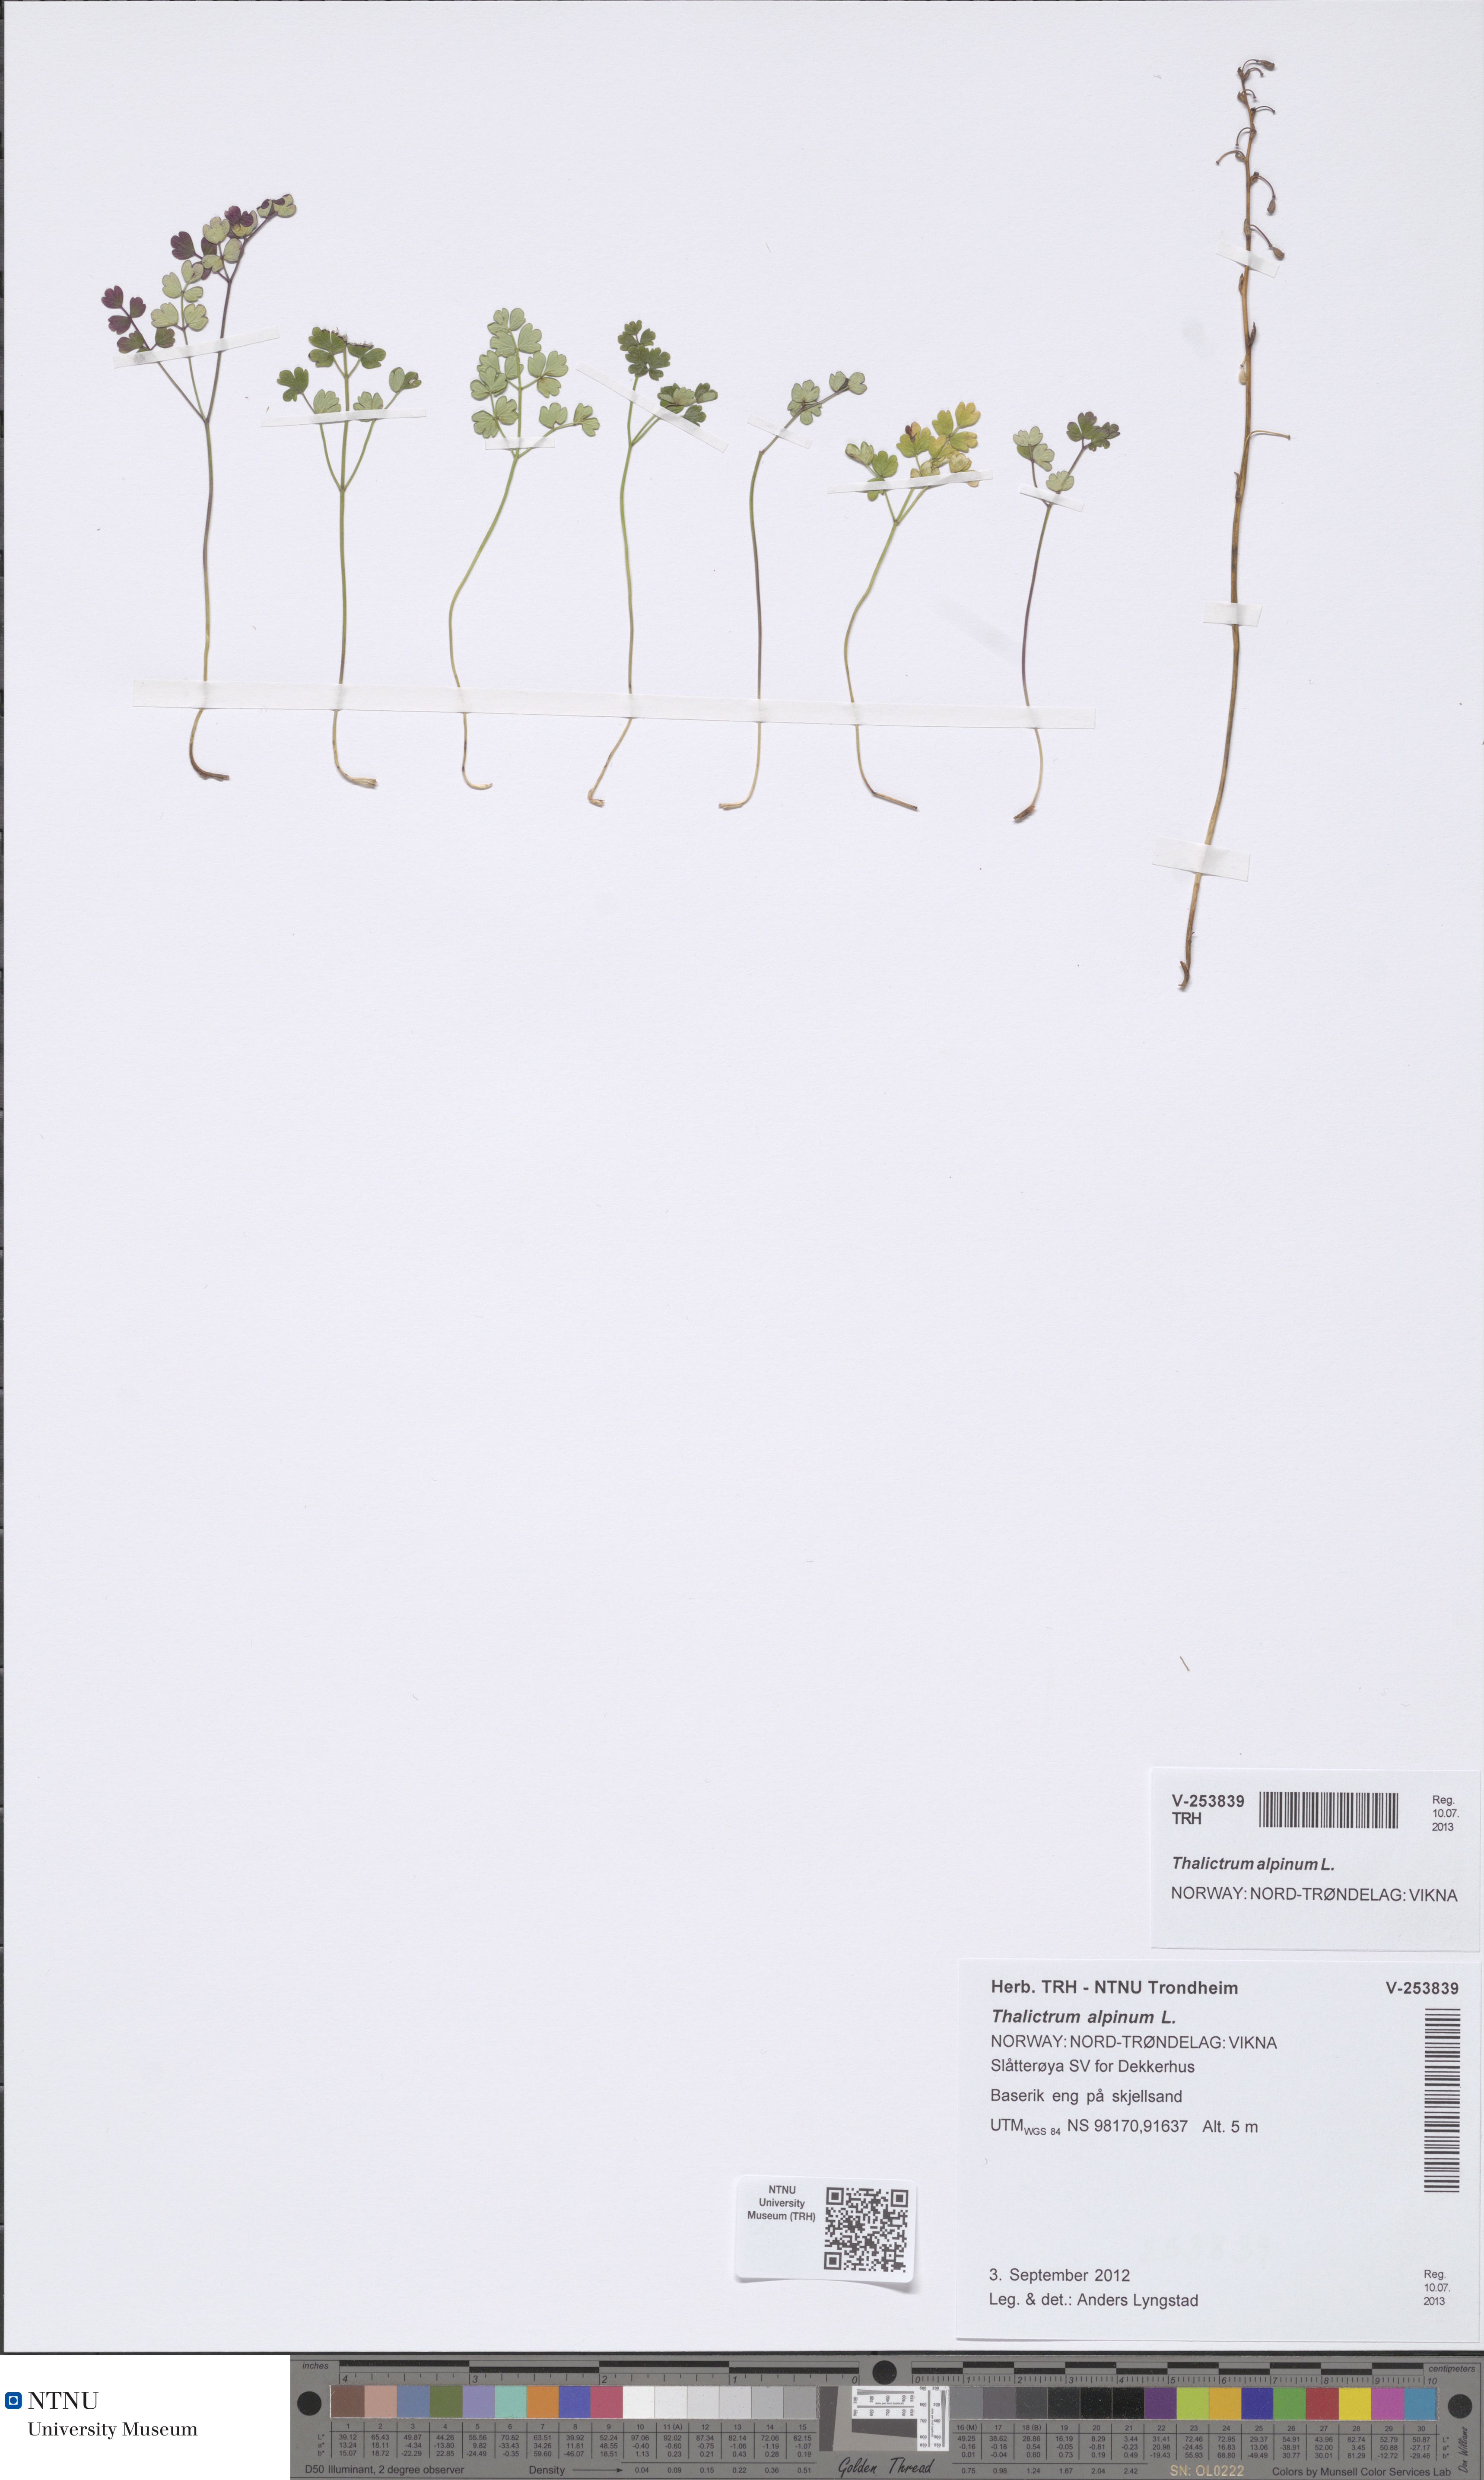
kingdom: Plantae
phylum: Tracheophyta
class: Magnoliopsida
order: Ranunculales
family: Ranunculaceae
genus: Thalictrum
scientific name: Thalictrum alpinum
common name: Alpine meadow-rue
